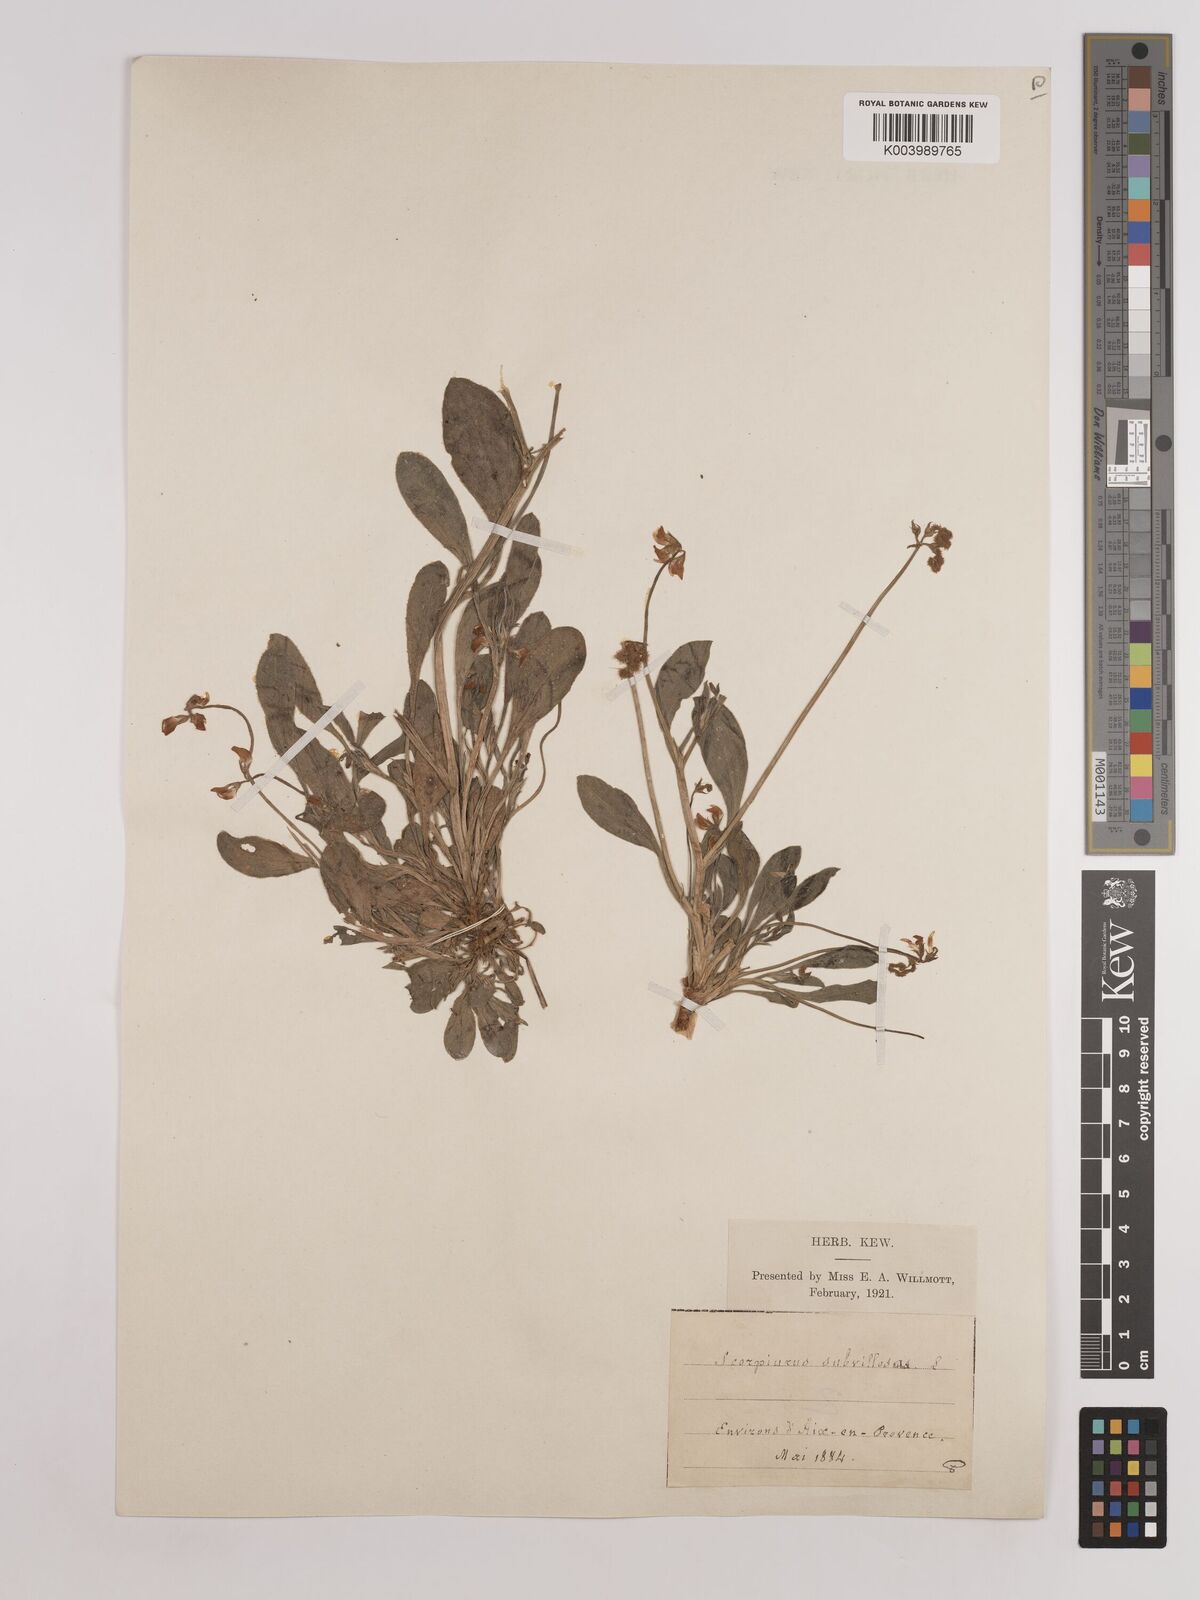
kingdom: Plantae
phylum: Tracheophyta
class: Magnoliopsida
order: Fabales
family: Fabaceae
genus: Scorpiurus
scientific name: Scorpiurus muricatus
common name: Caterpillar-plant
